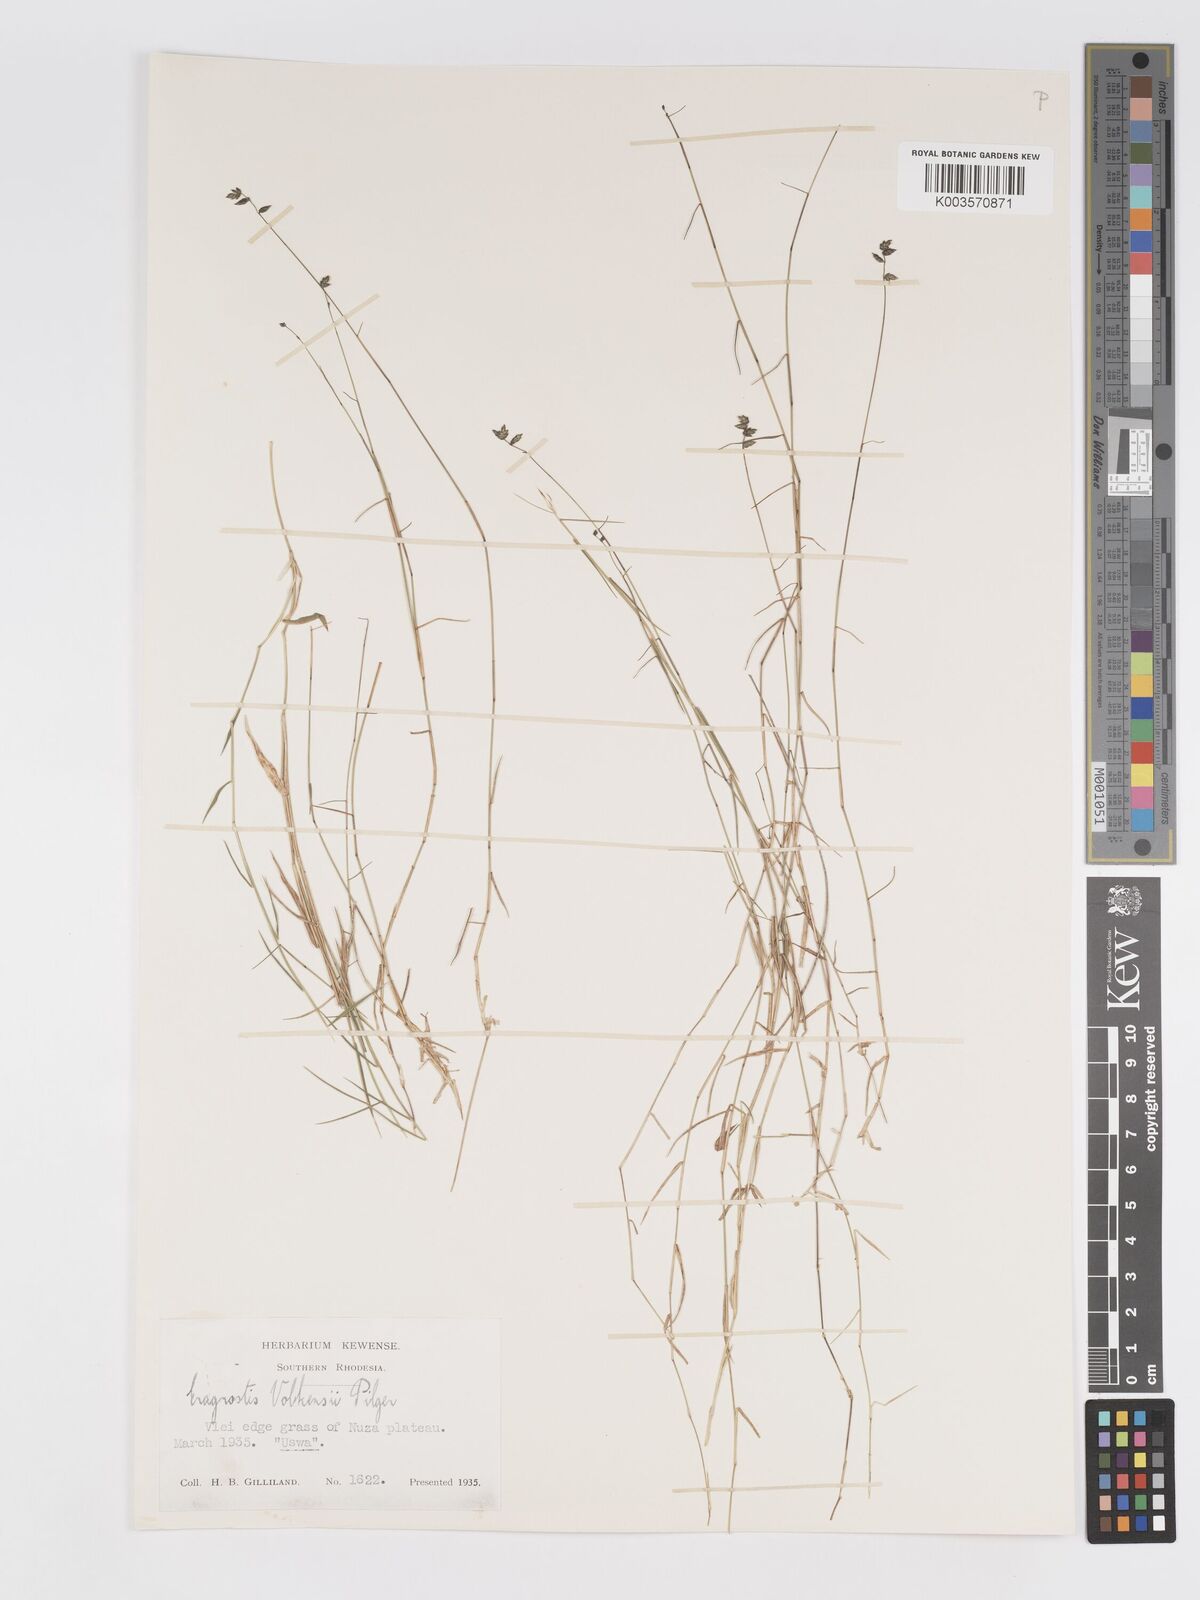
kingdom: Plantae
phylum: Tracheophyta
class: Liliopsida
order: Poales
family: Poaceae
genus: Eragrostis
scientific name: Eragrostis volkensii
